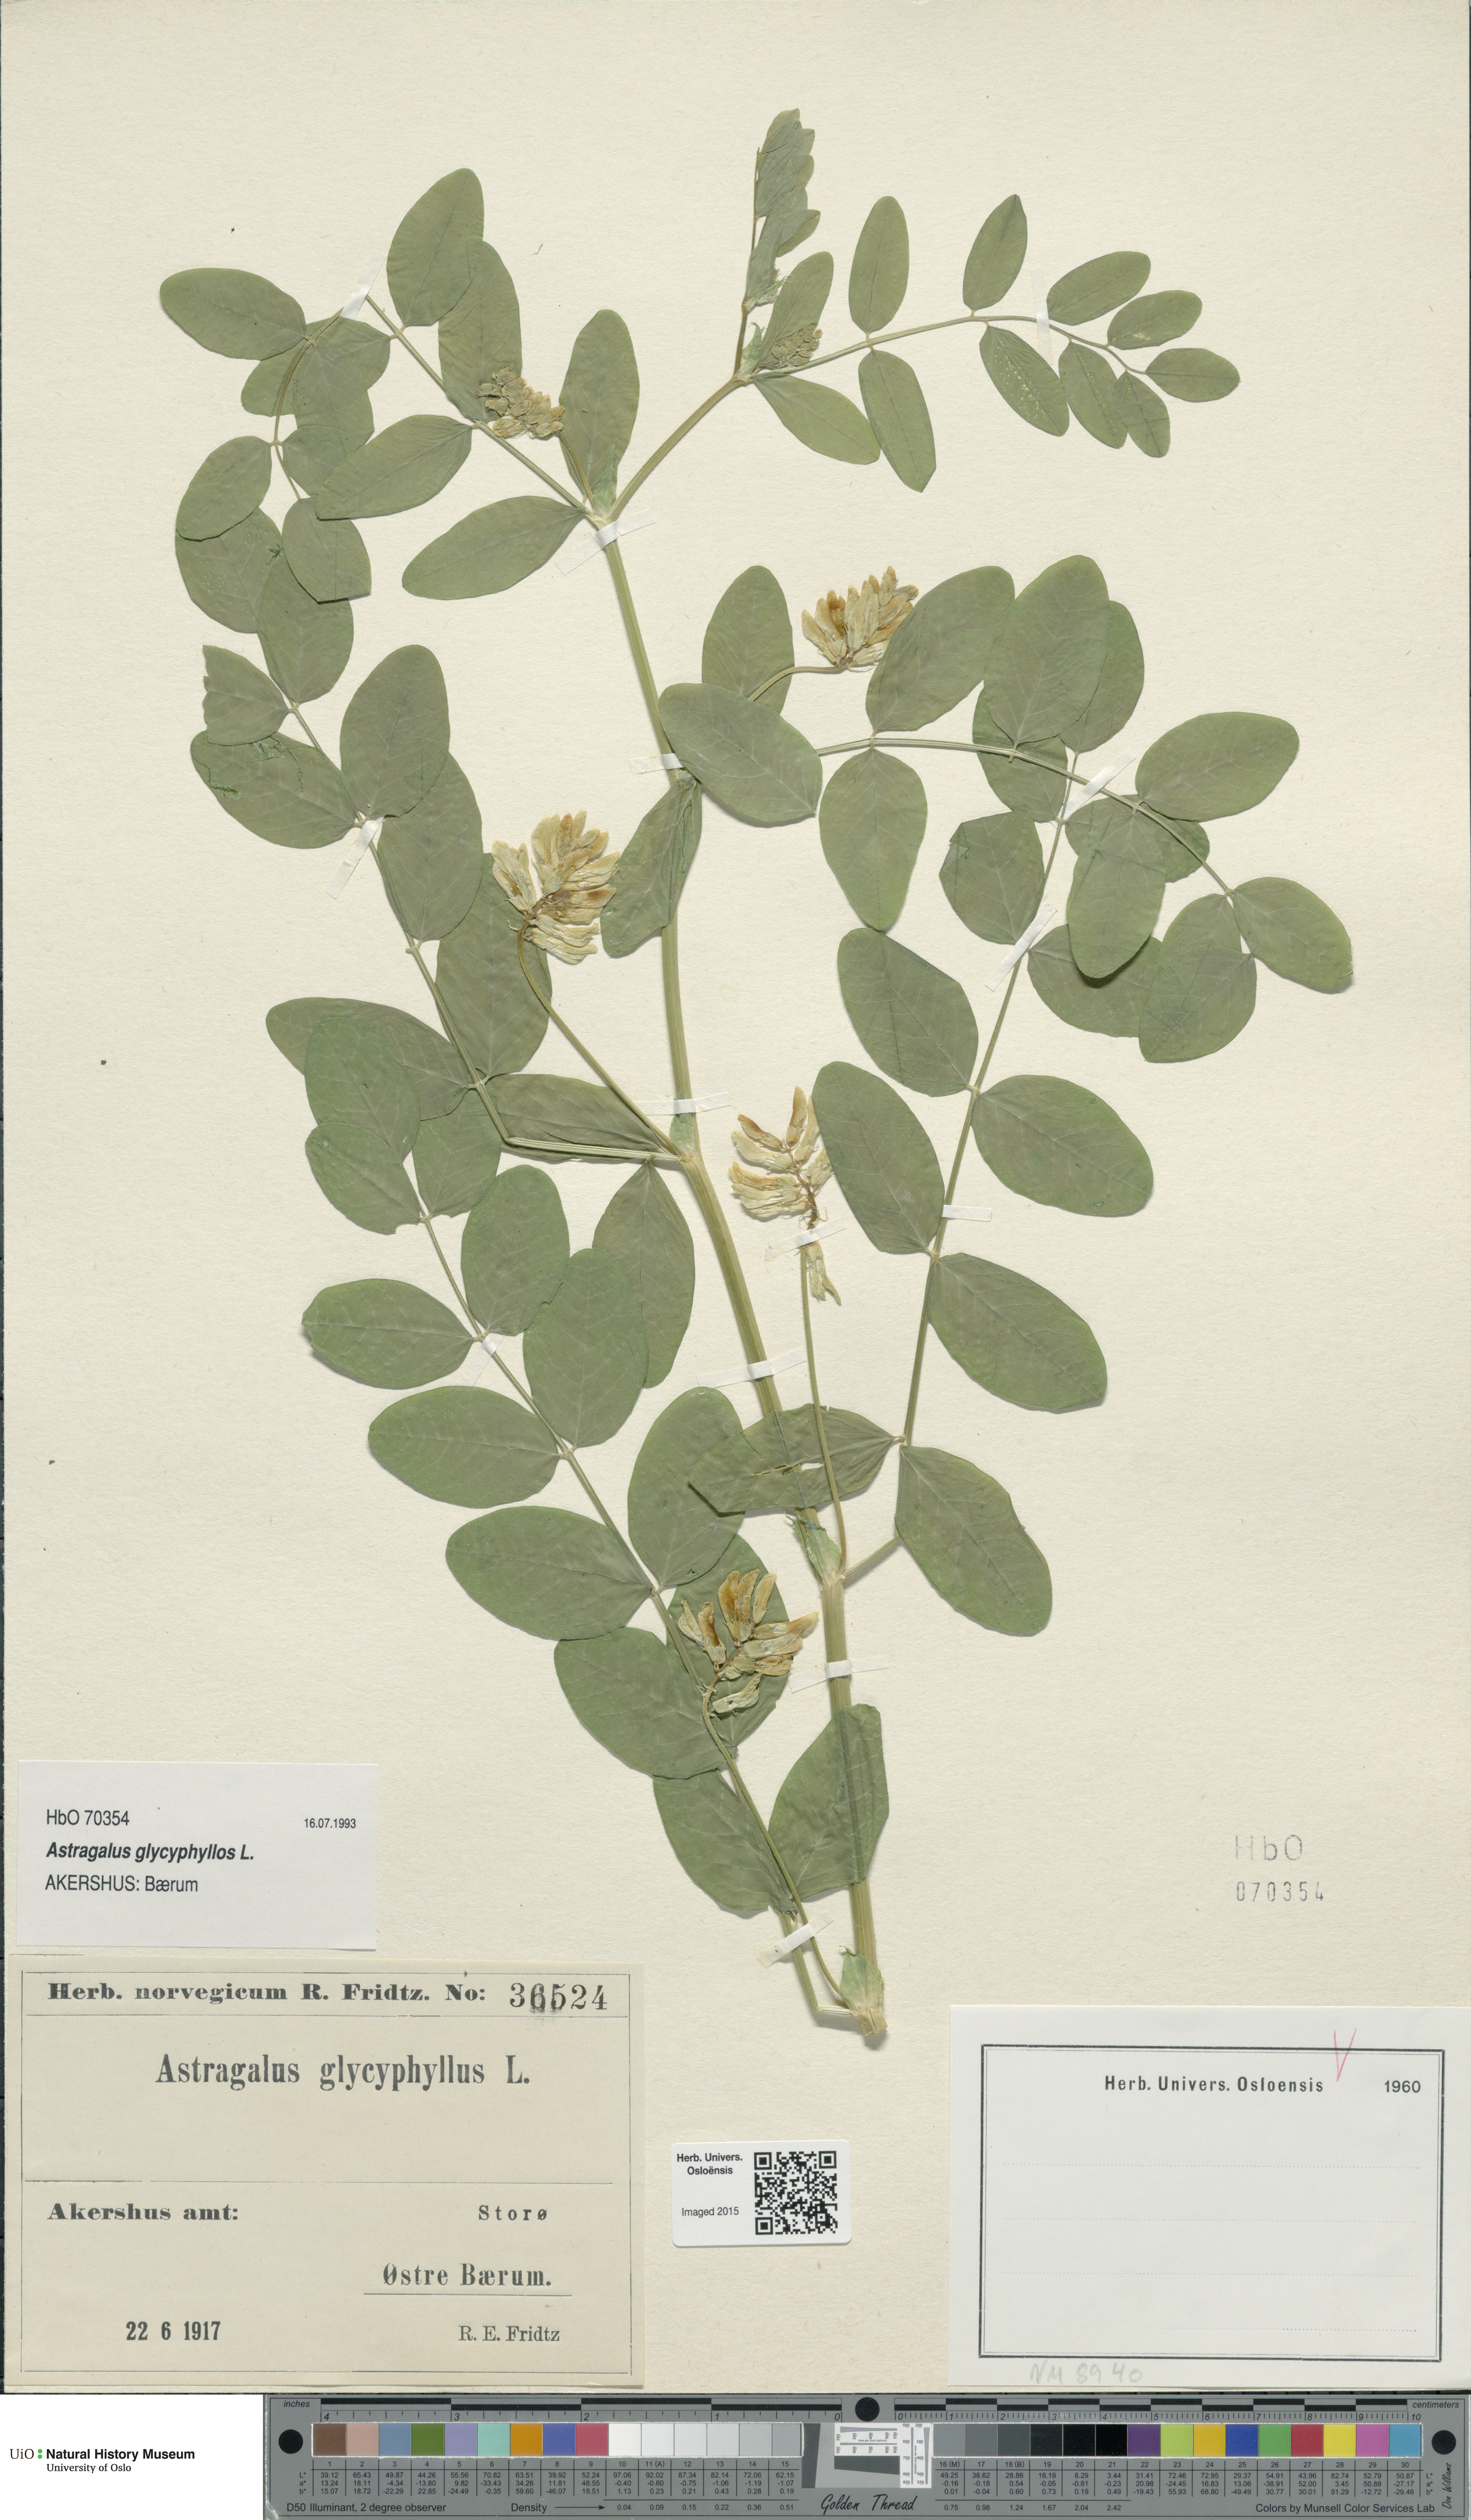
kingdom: Plantae
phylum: Tracheophyta
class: Magnoliopsida
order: Fabales
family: Fabaceae
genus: Astragalus
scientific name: Astragalus glycyphyllos
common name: Wild liquorice
